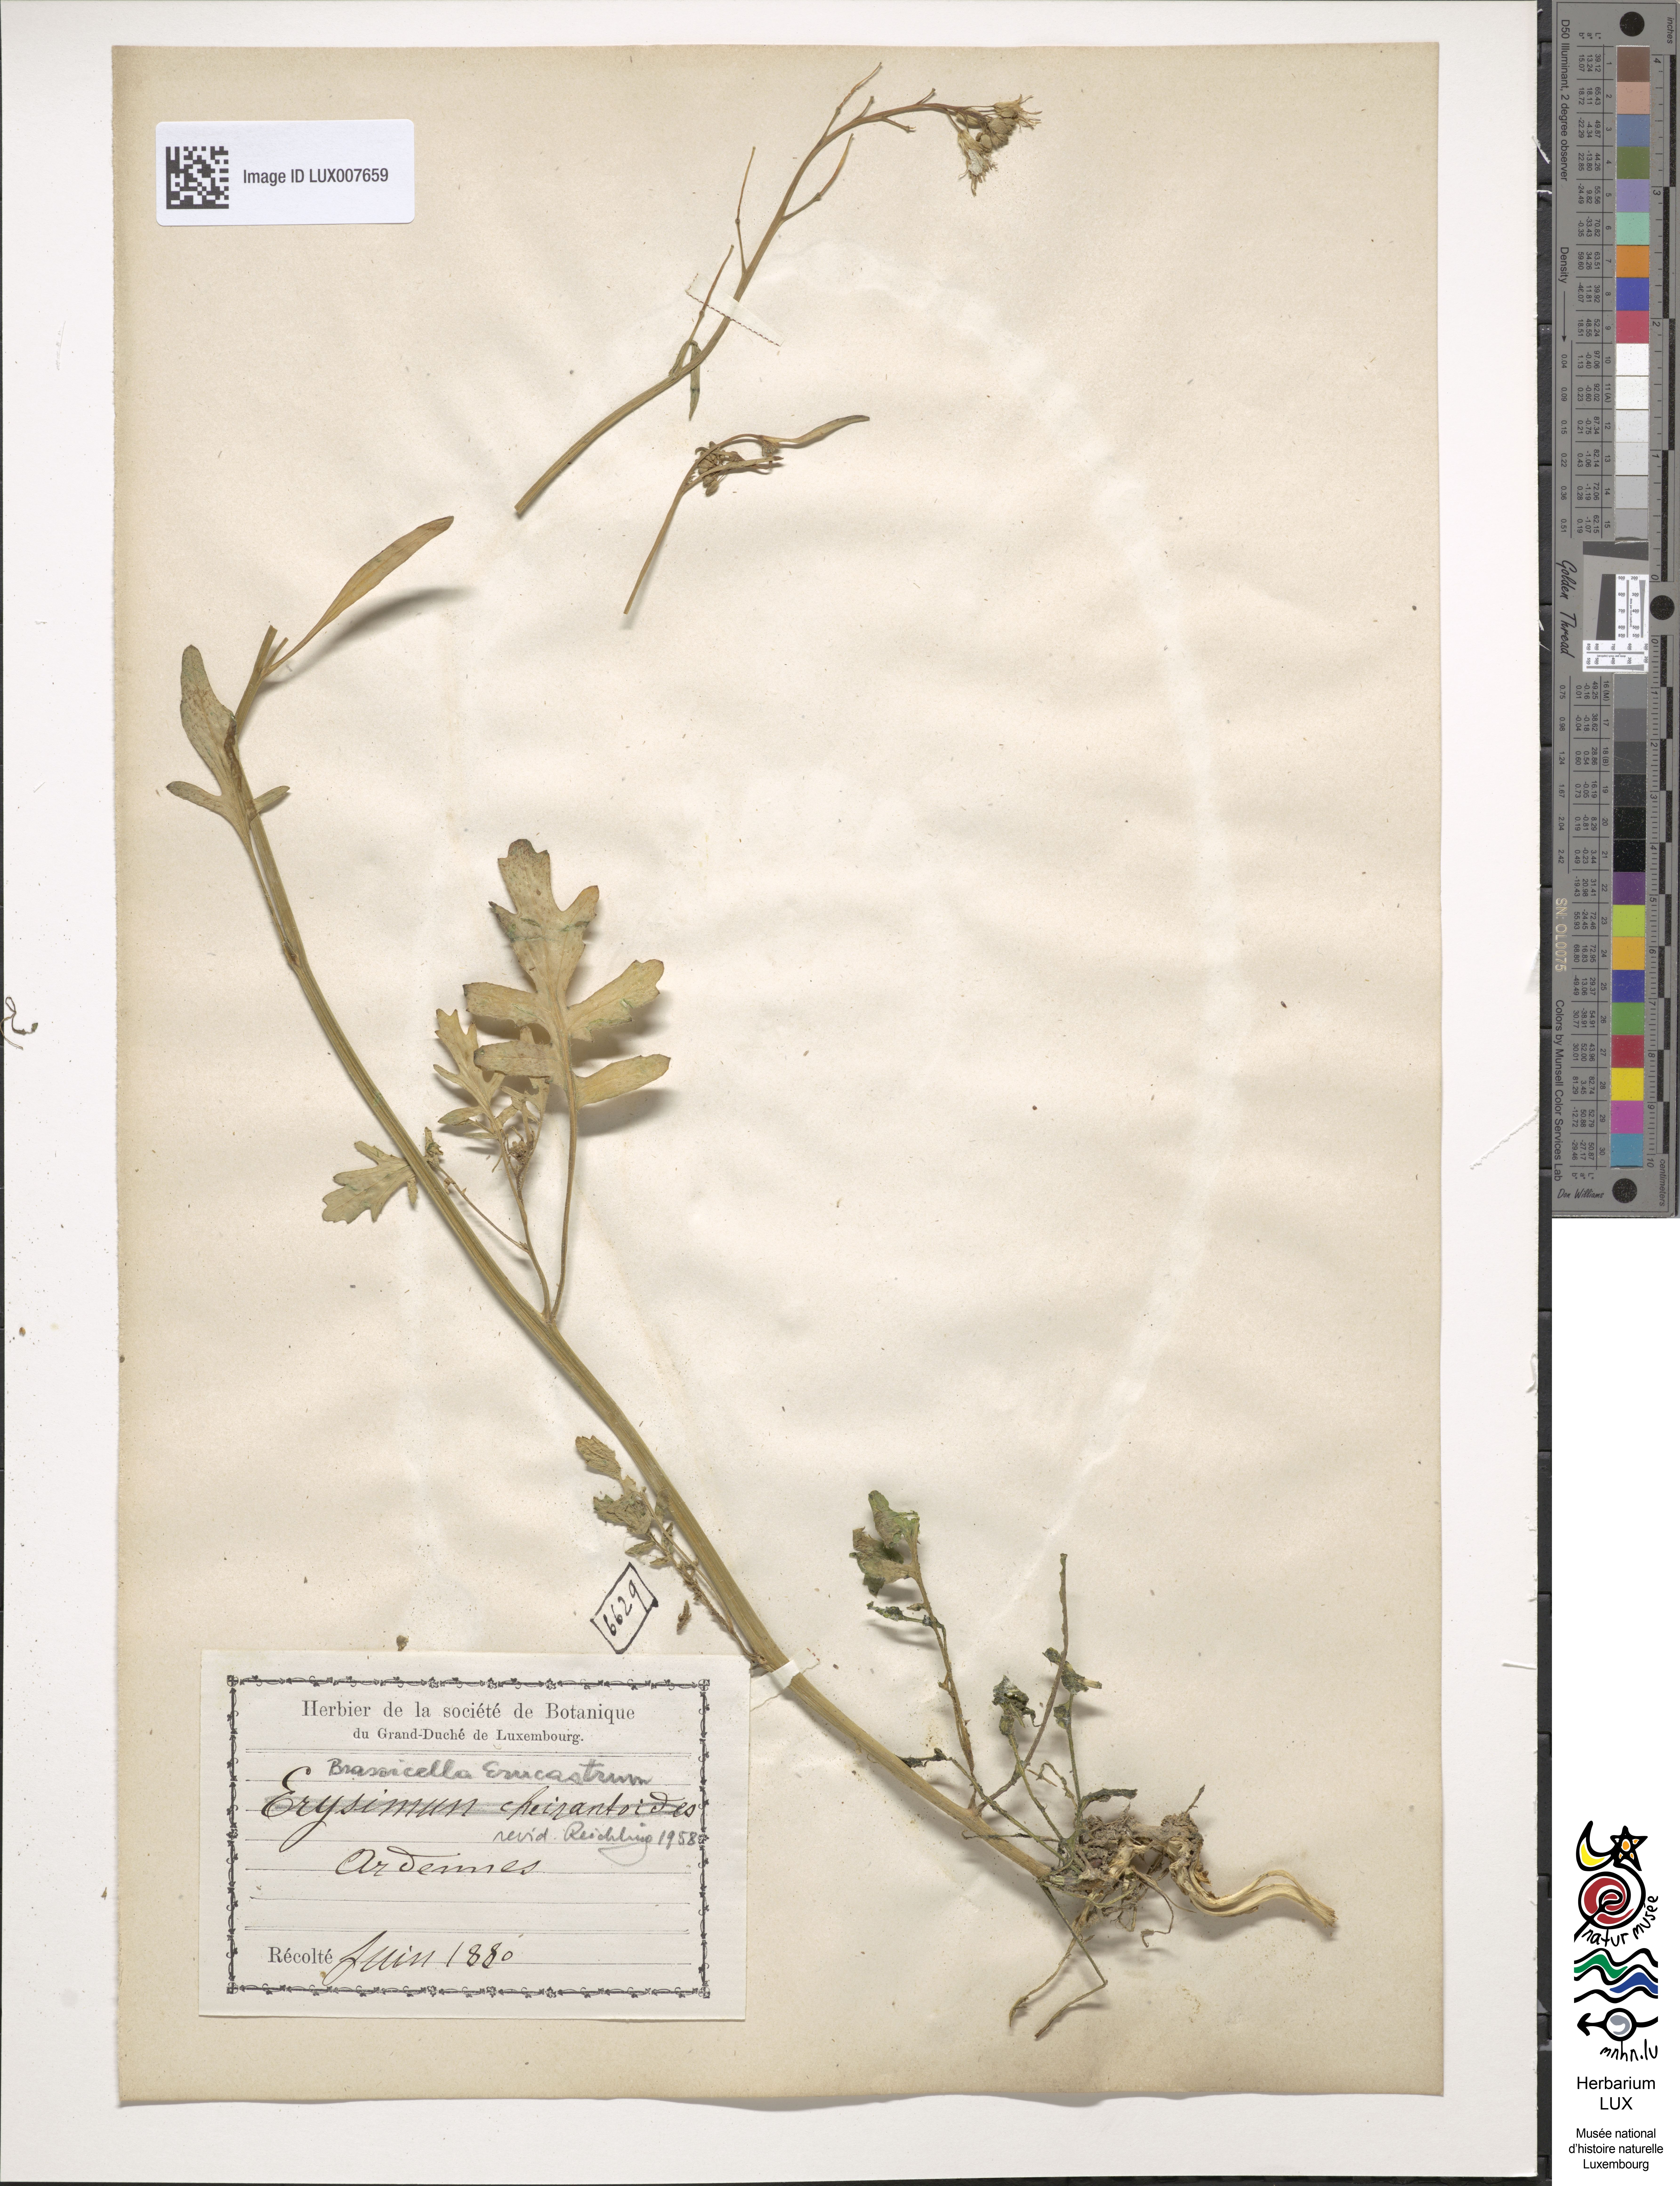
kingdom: Plantae
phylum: Tracheophyta
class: Magnoliopsida
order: Brassicales
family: Brassicaceae
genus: Erysimum
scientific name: Erysimum cheiranthoides
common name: Treacle mustard
